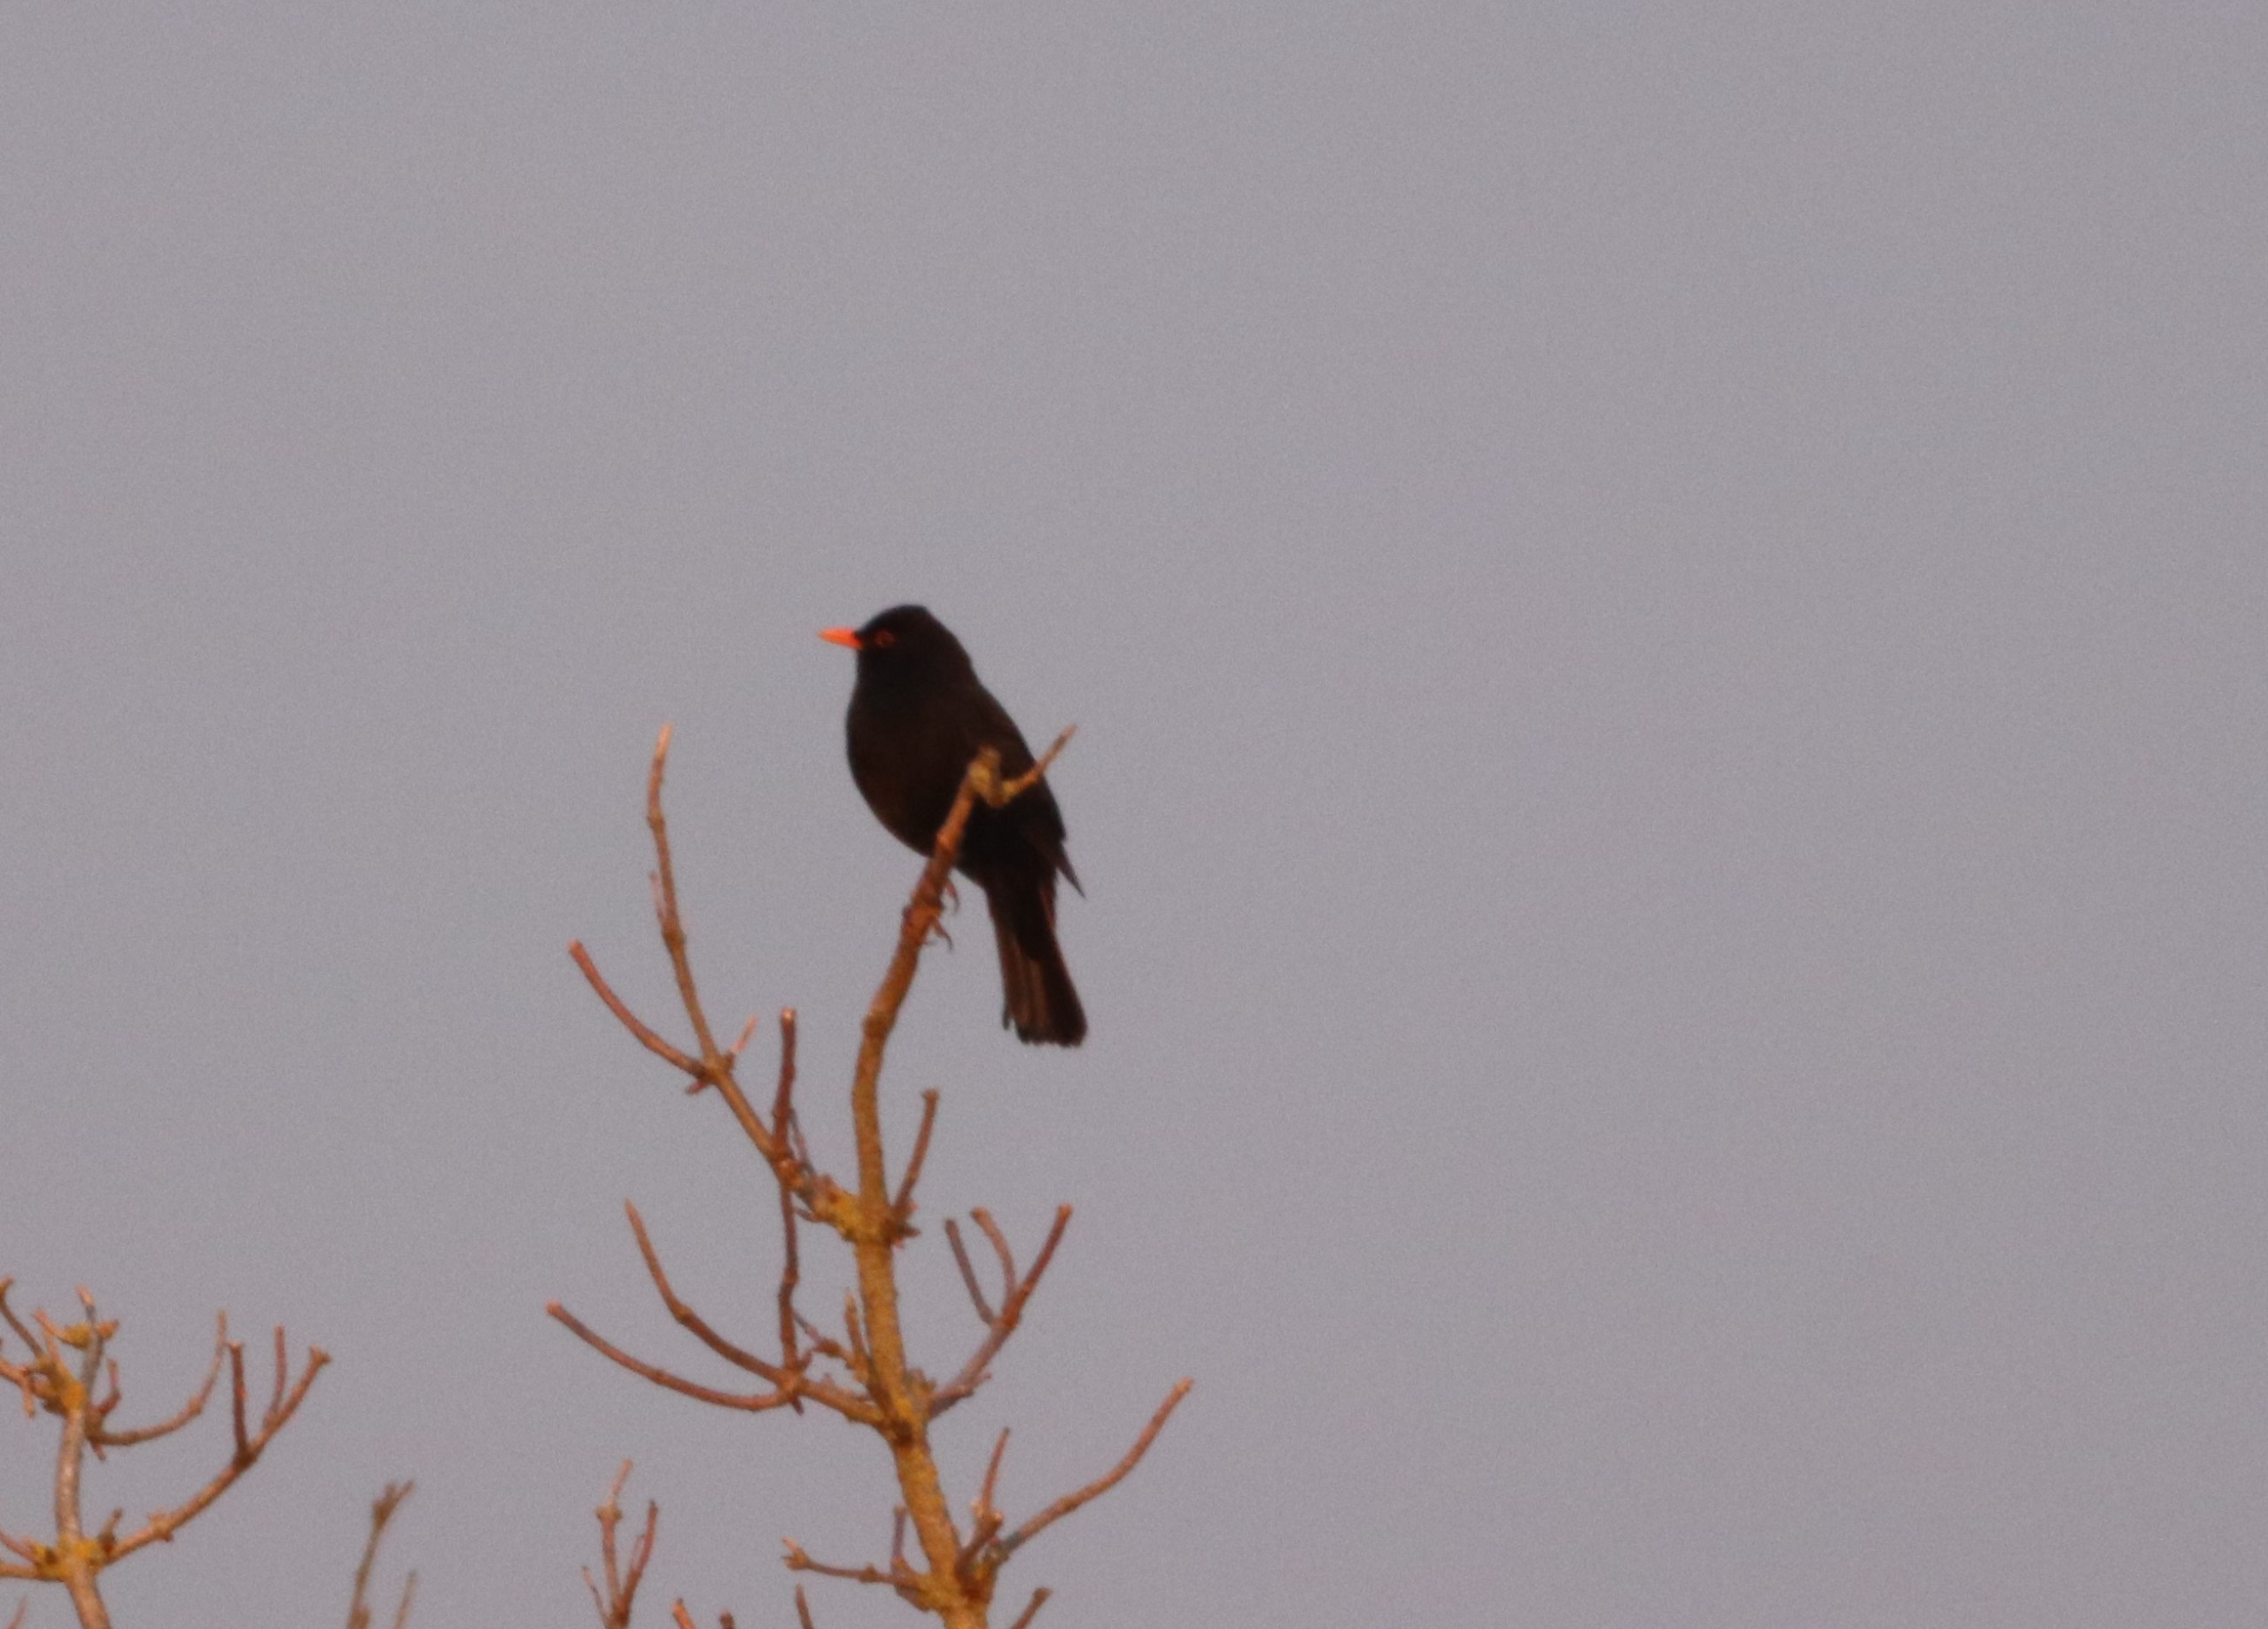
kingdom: Animalia
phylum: Chordata
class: Aves
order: Passeriformes
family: Turdidae
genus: Turdus
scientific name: Turdus merula
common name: Solsort
